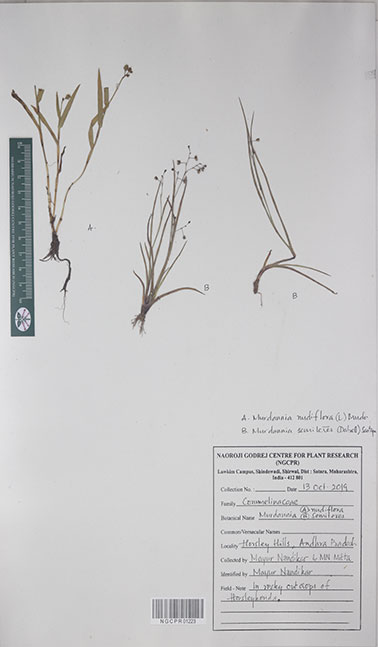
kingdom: Plantae
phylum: Tracheophyta
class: Liliopsida
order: Commelinales
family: Commelinaceae
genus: Murdannia
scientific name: Murdannia semiteres
